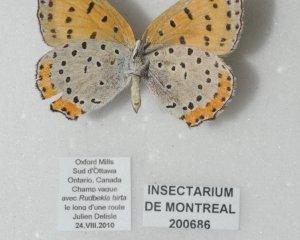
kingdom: Animalia
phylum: Arthropoda
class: Insecta
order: Lepidoptera
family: Sesiidae
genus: Sesia
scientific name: Sesia Lycaena hyllus
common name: Bronze Copper
